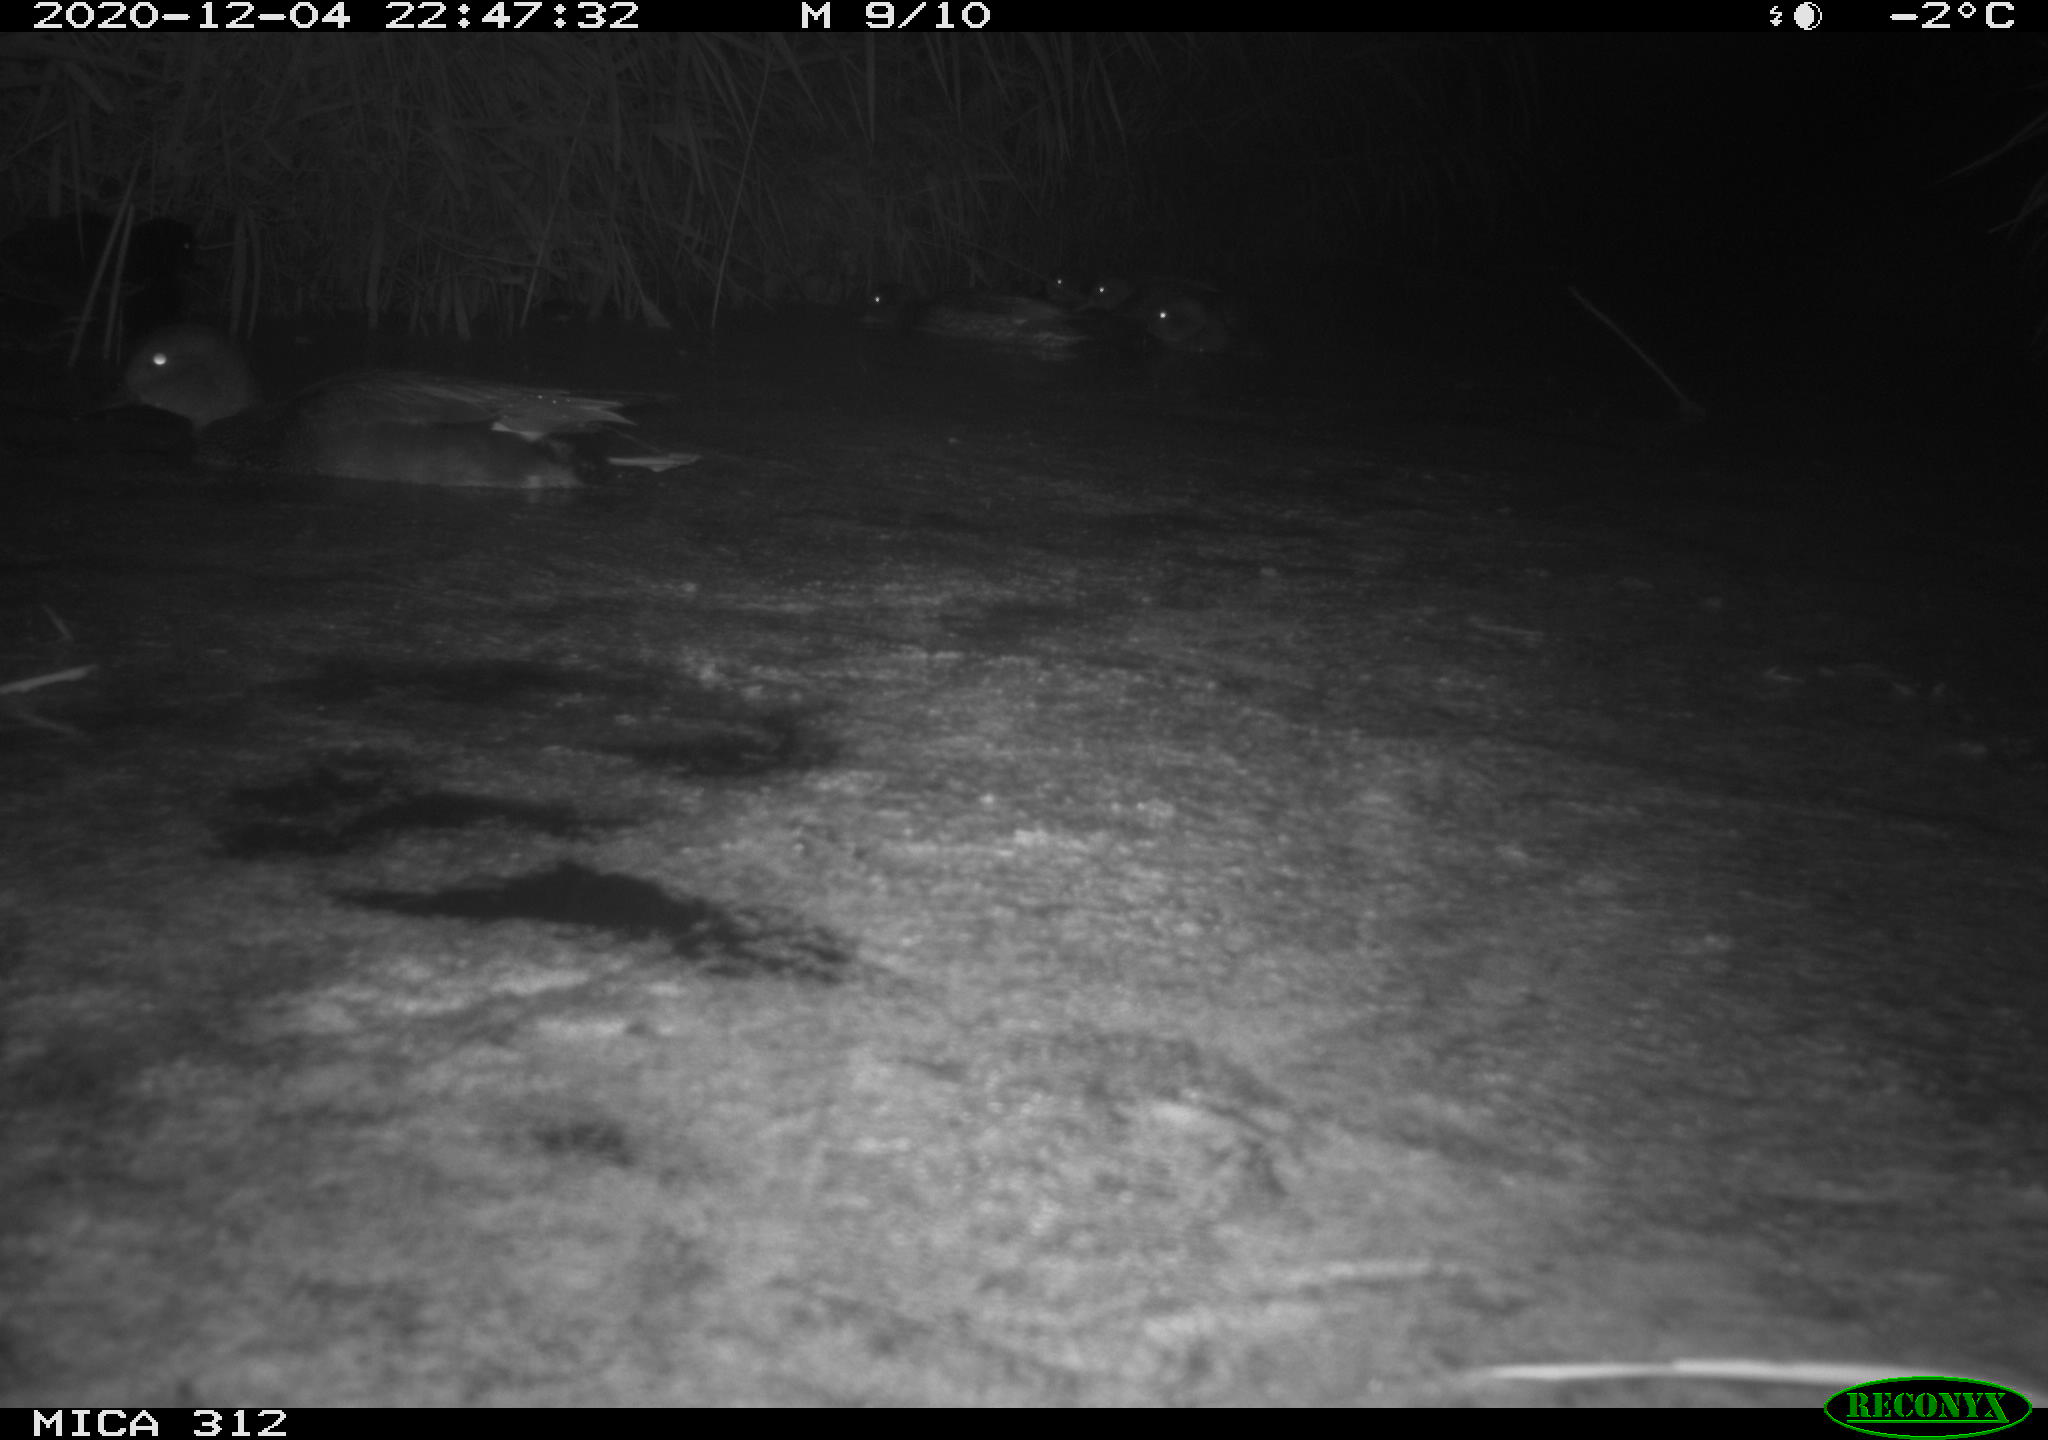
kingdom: Animalia
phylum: Chordata
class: Aves
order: Gruiformes
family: Rallidae
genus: Fulica
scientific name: Fulica atra
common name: Eurasian coot
